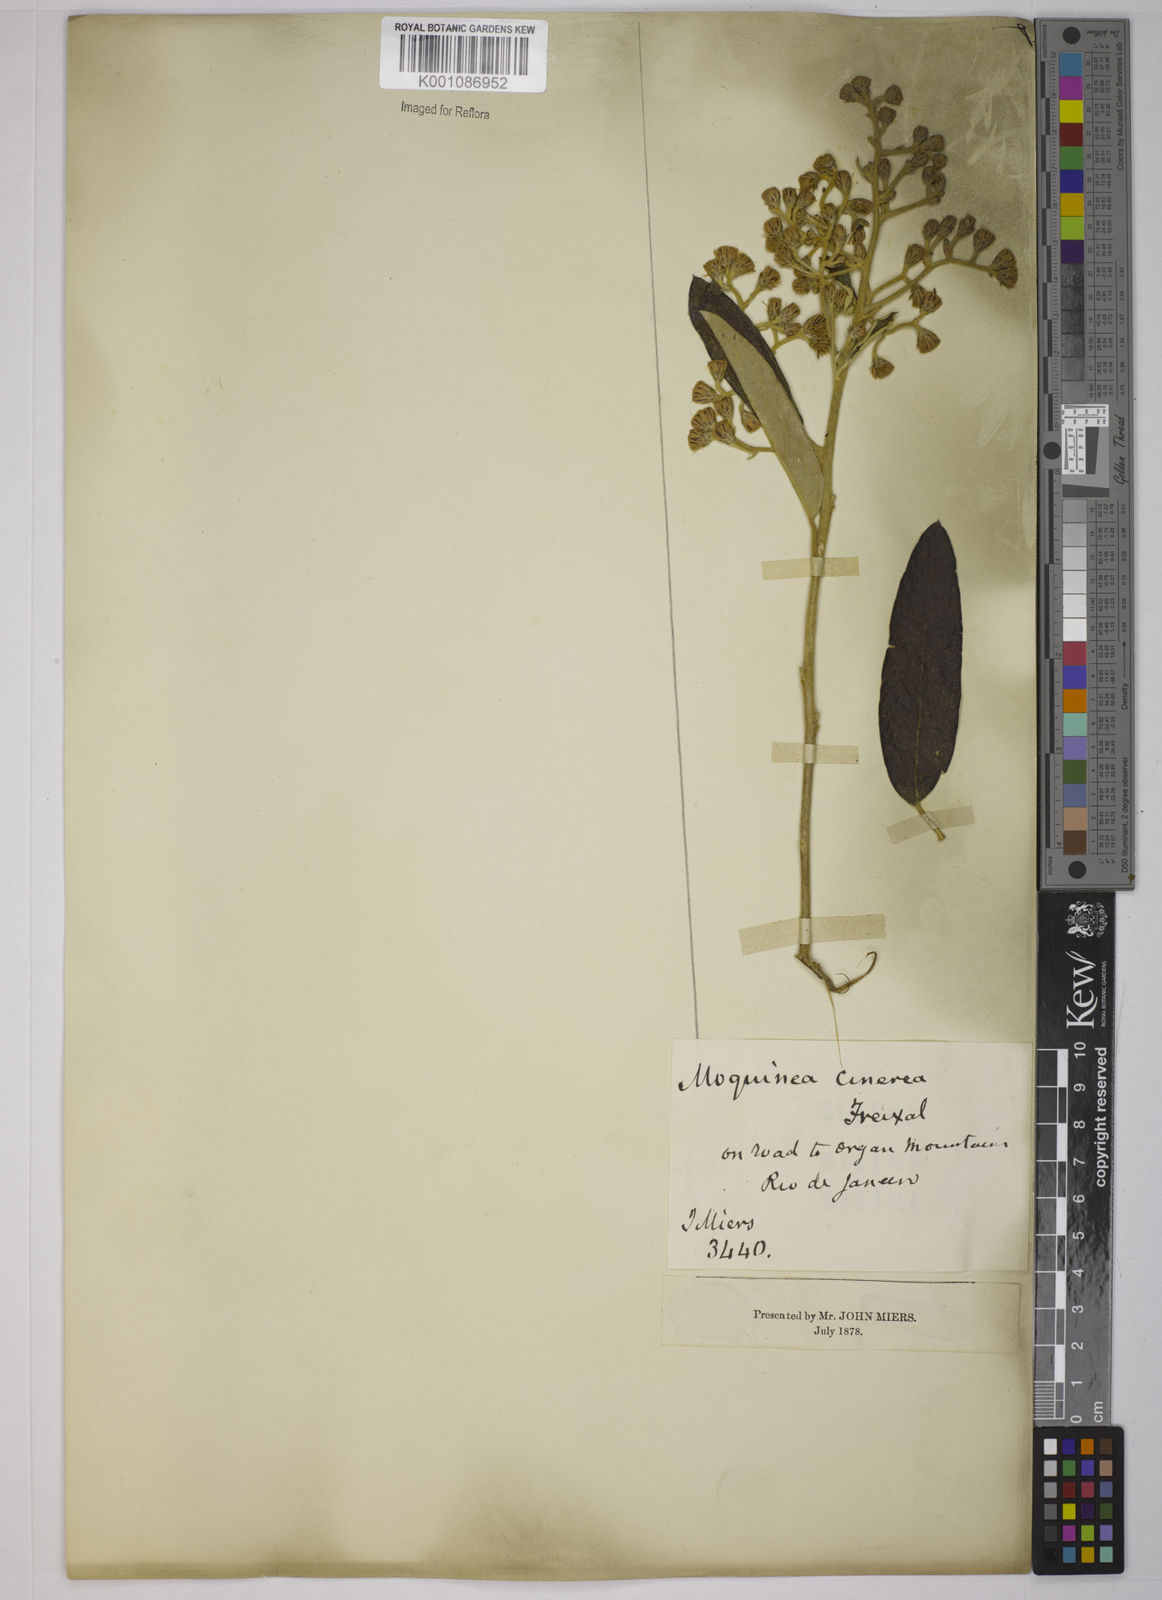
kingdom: Plantae
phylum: Tracheophyta
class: Magnoliopsida
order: Asterales
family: Asteraceae
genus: Moquiniastrum
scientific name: Moquiniastrum polymorphum
